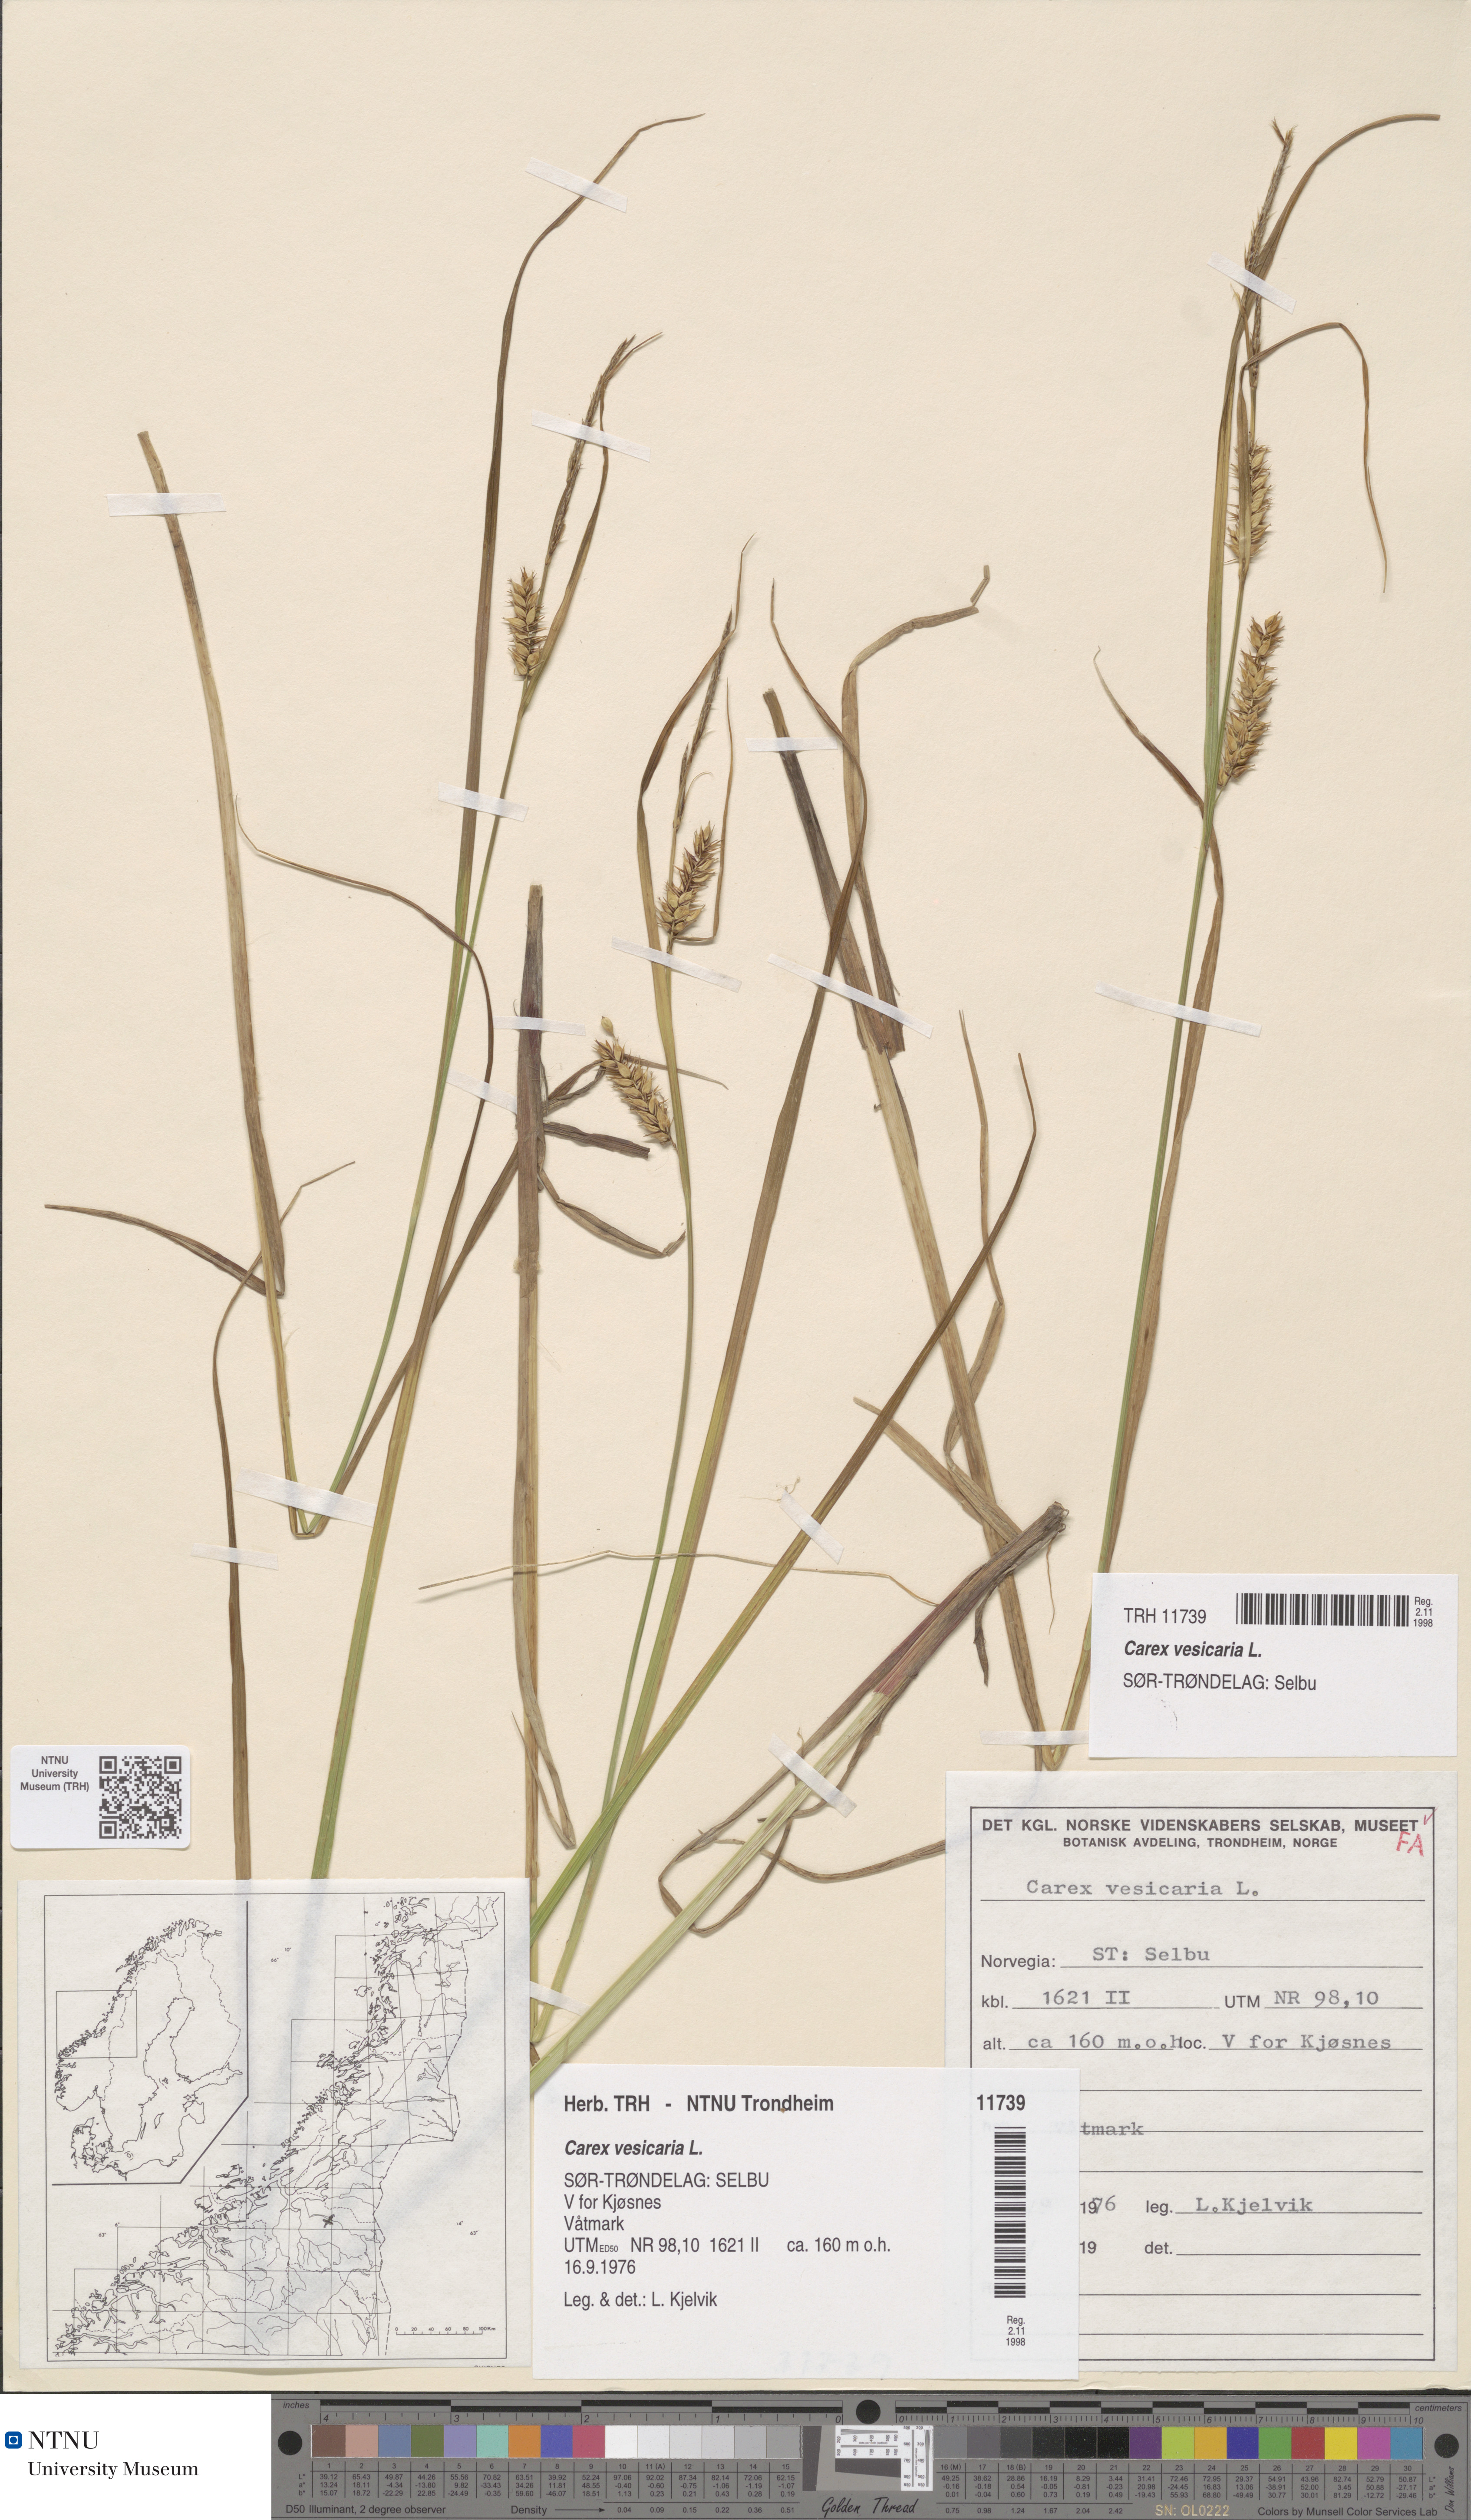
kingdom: Plantae
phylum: Tracheophyta
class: Liliopsida
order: Poales
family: Cyperaceae
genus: Carex
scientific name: Carex vesicaria
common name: Bladder-sedge
